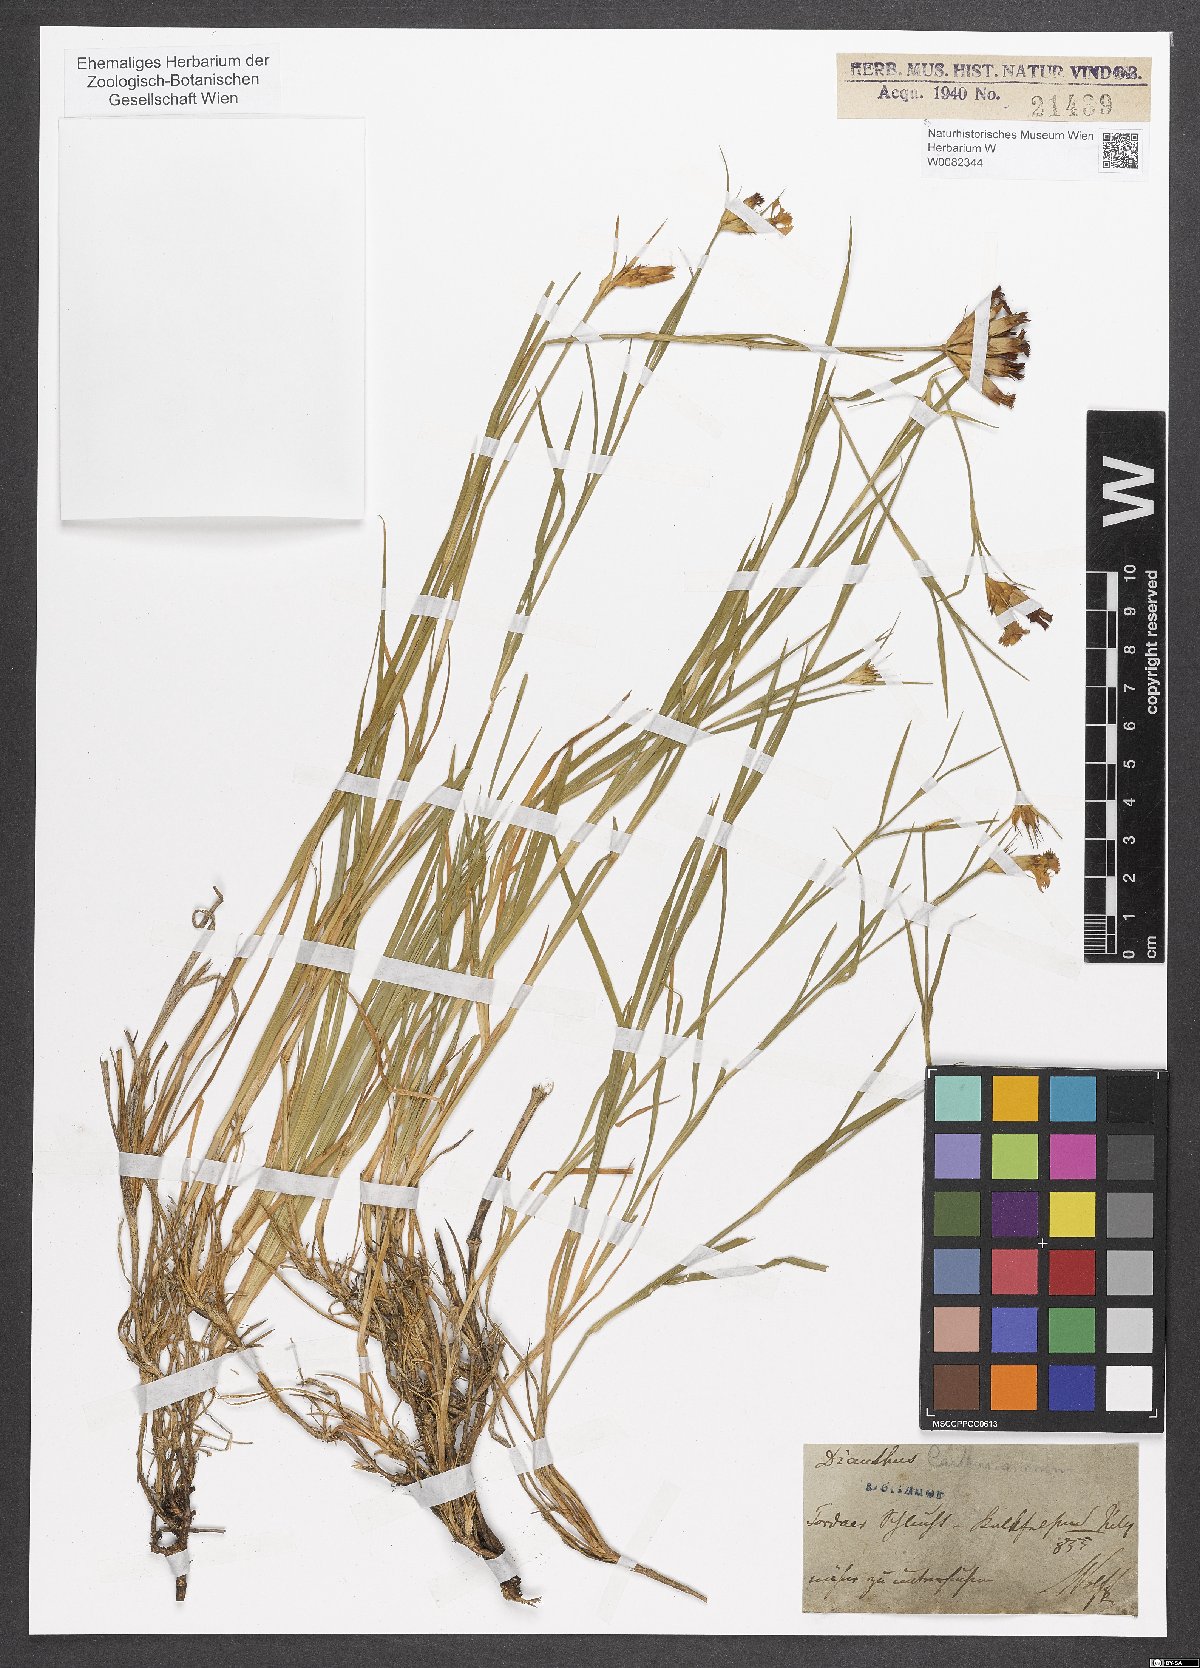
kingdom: Plantae
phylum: Tracheophyta
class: Magnoliopsida
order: Caryophyllales
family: Caryophyllaceae
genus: Dianthus
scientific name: Dianthus carthusianorum
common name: Carthusian pink
